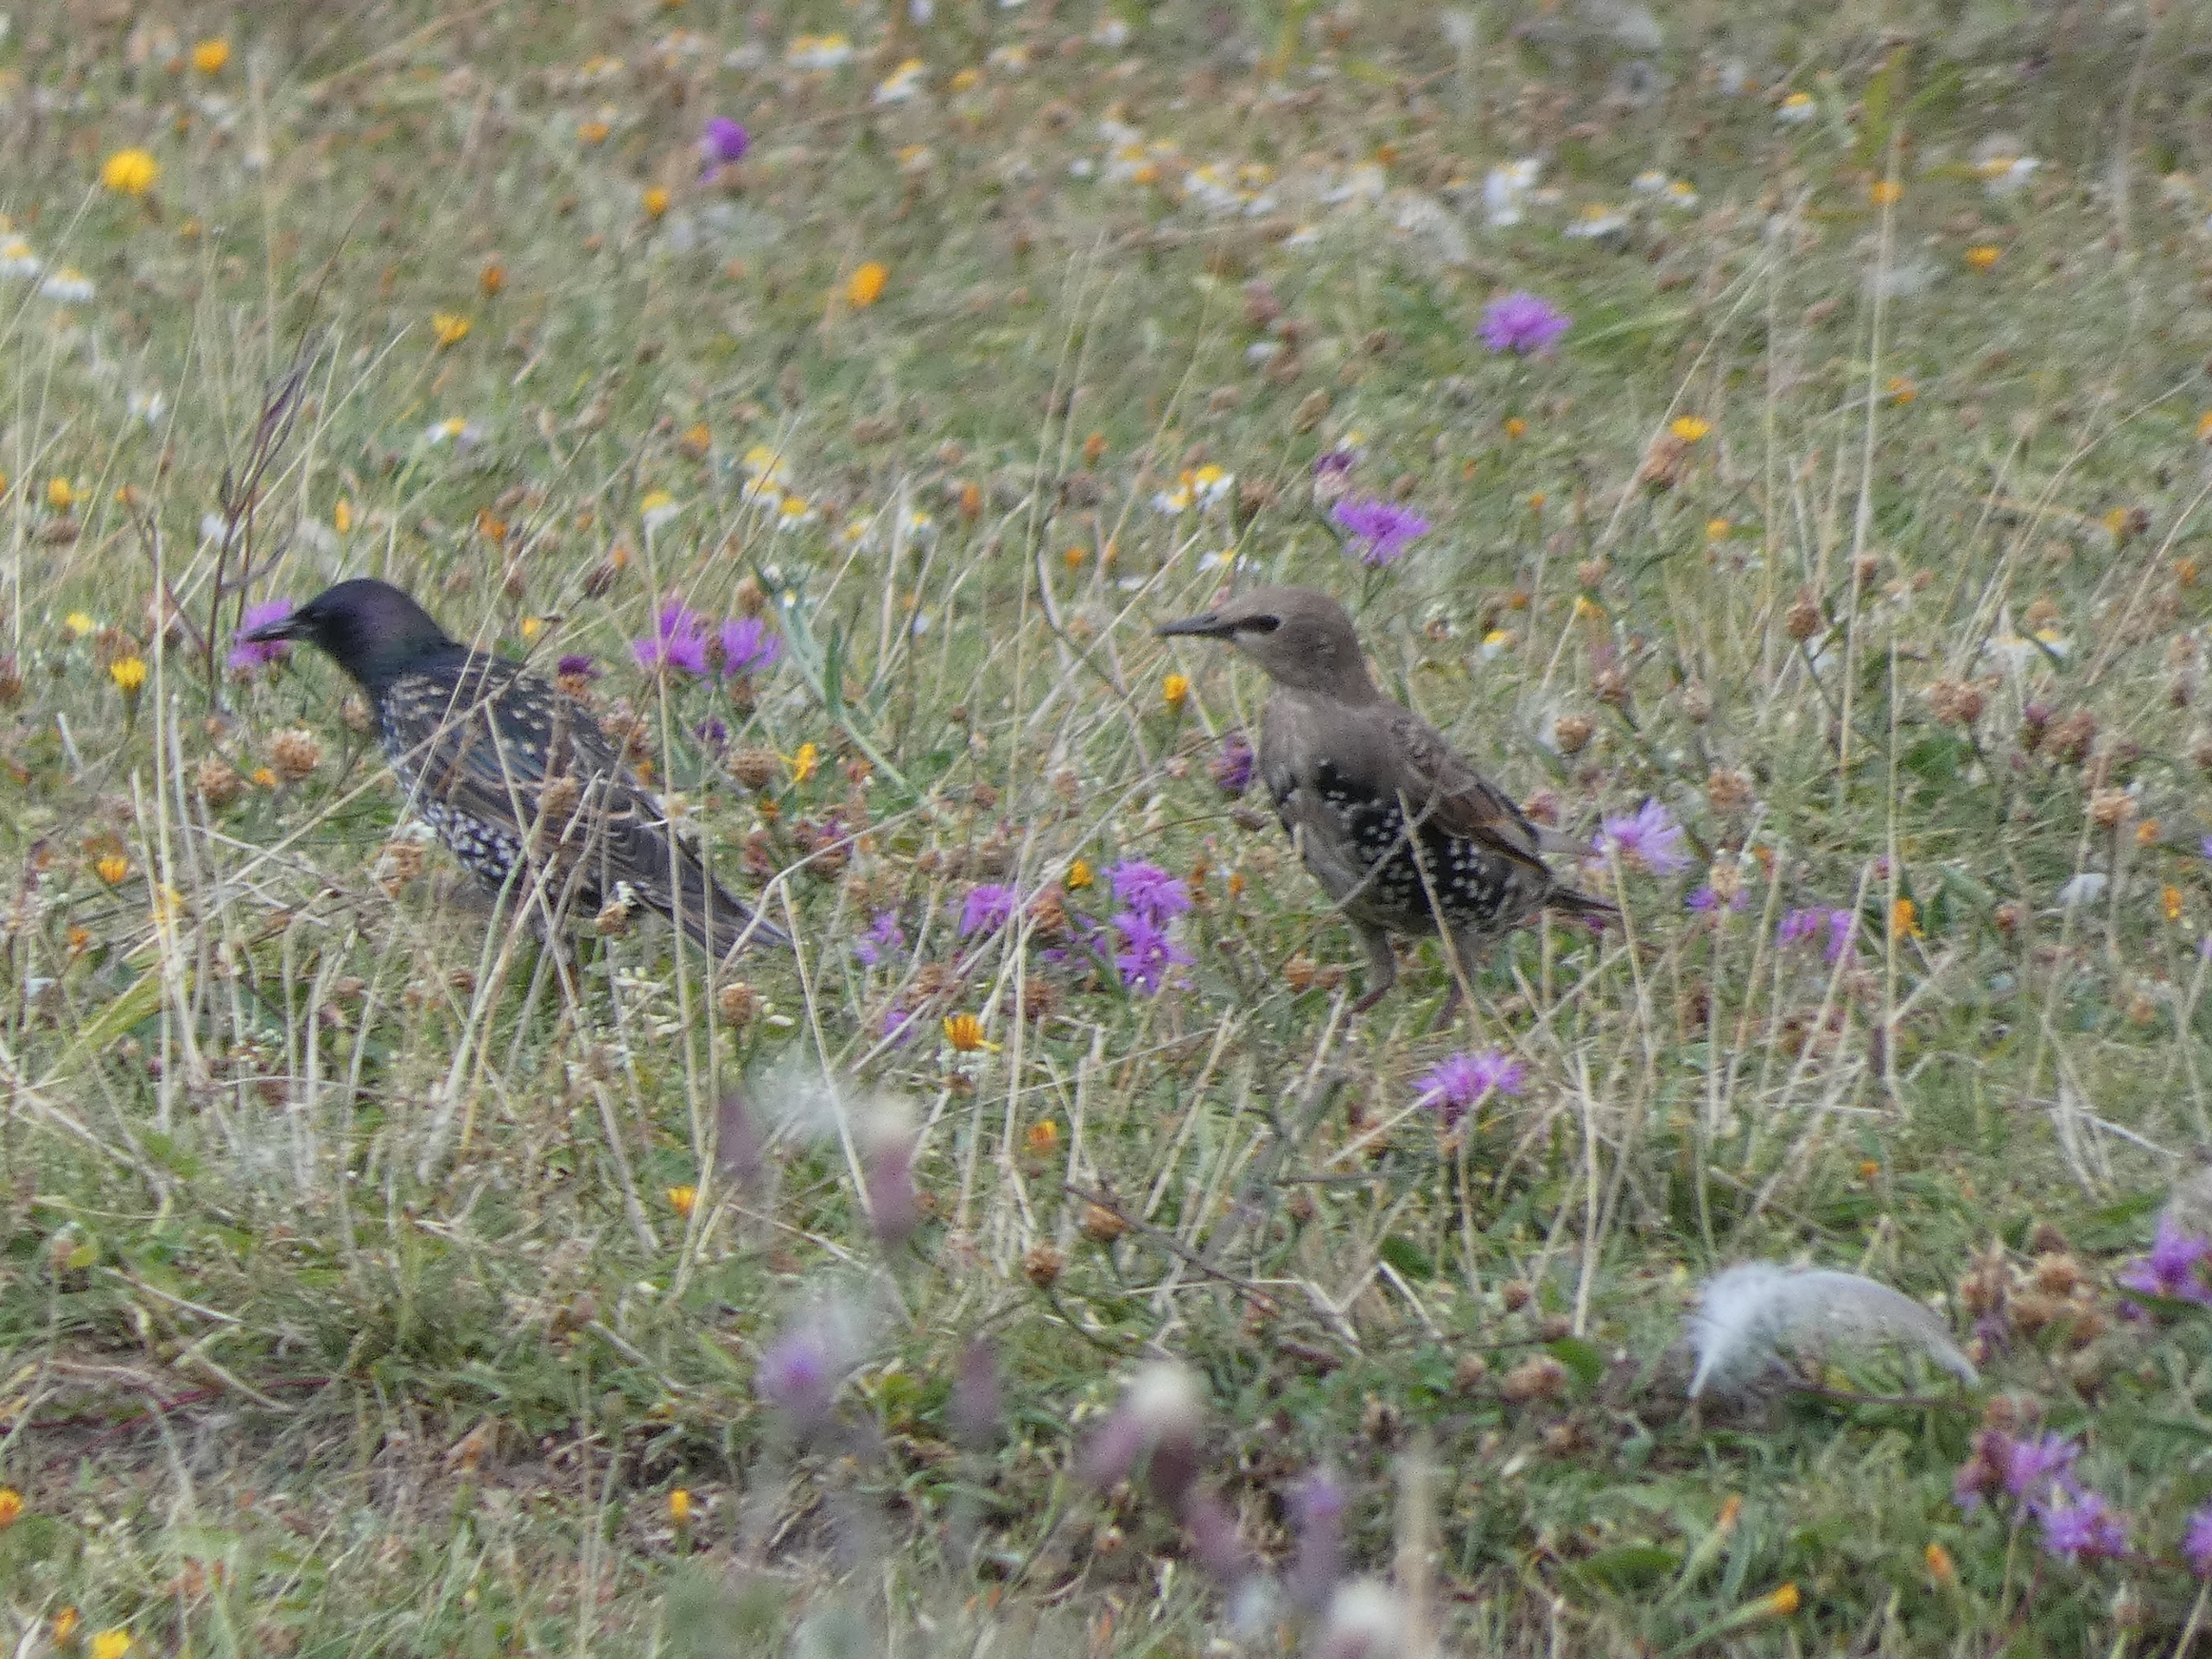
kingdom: Animalia
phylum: Chordata
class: Aves
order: Passeriformes
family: Sturnidae
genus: Sturnus
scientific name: Sturnus vulgaris
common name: Stær
